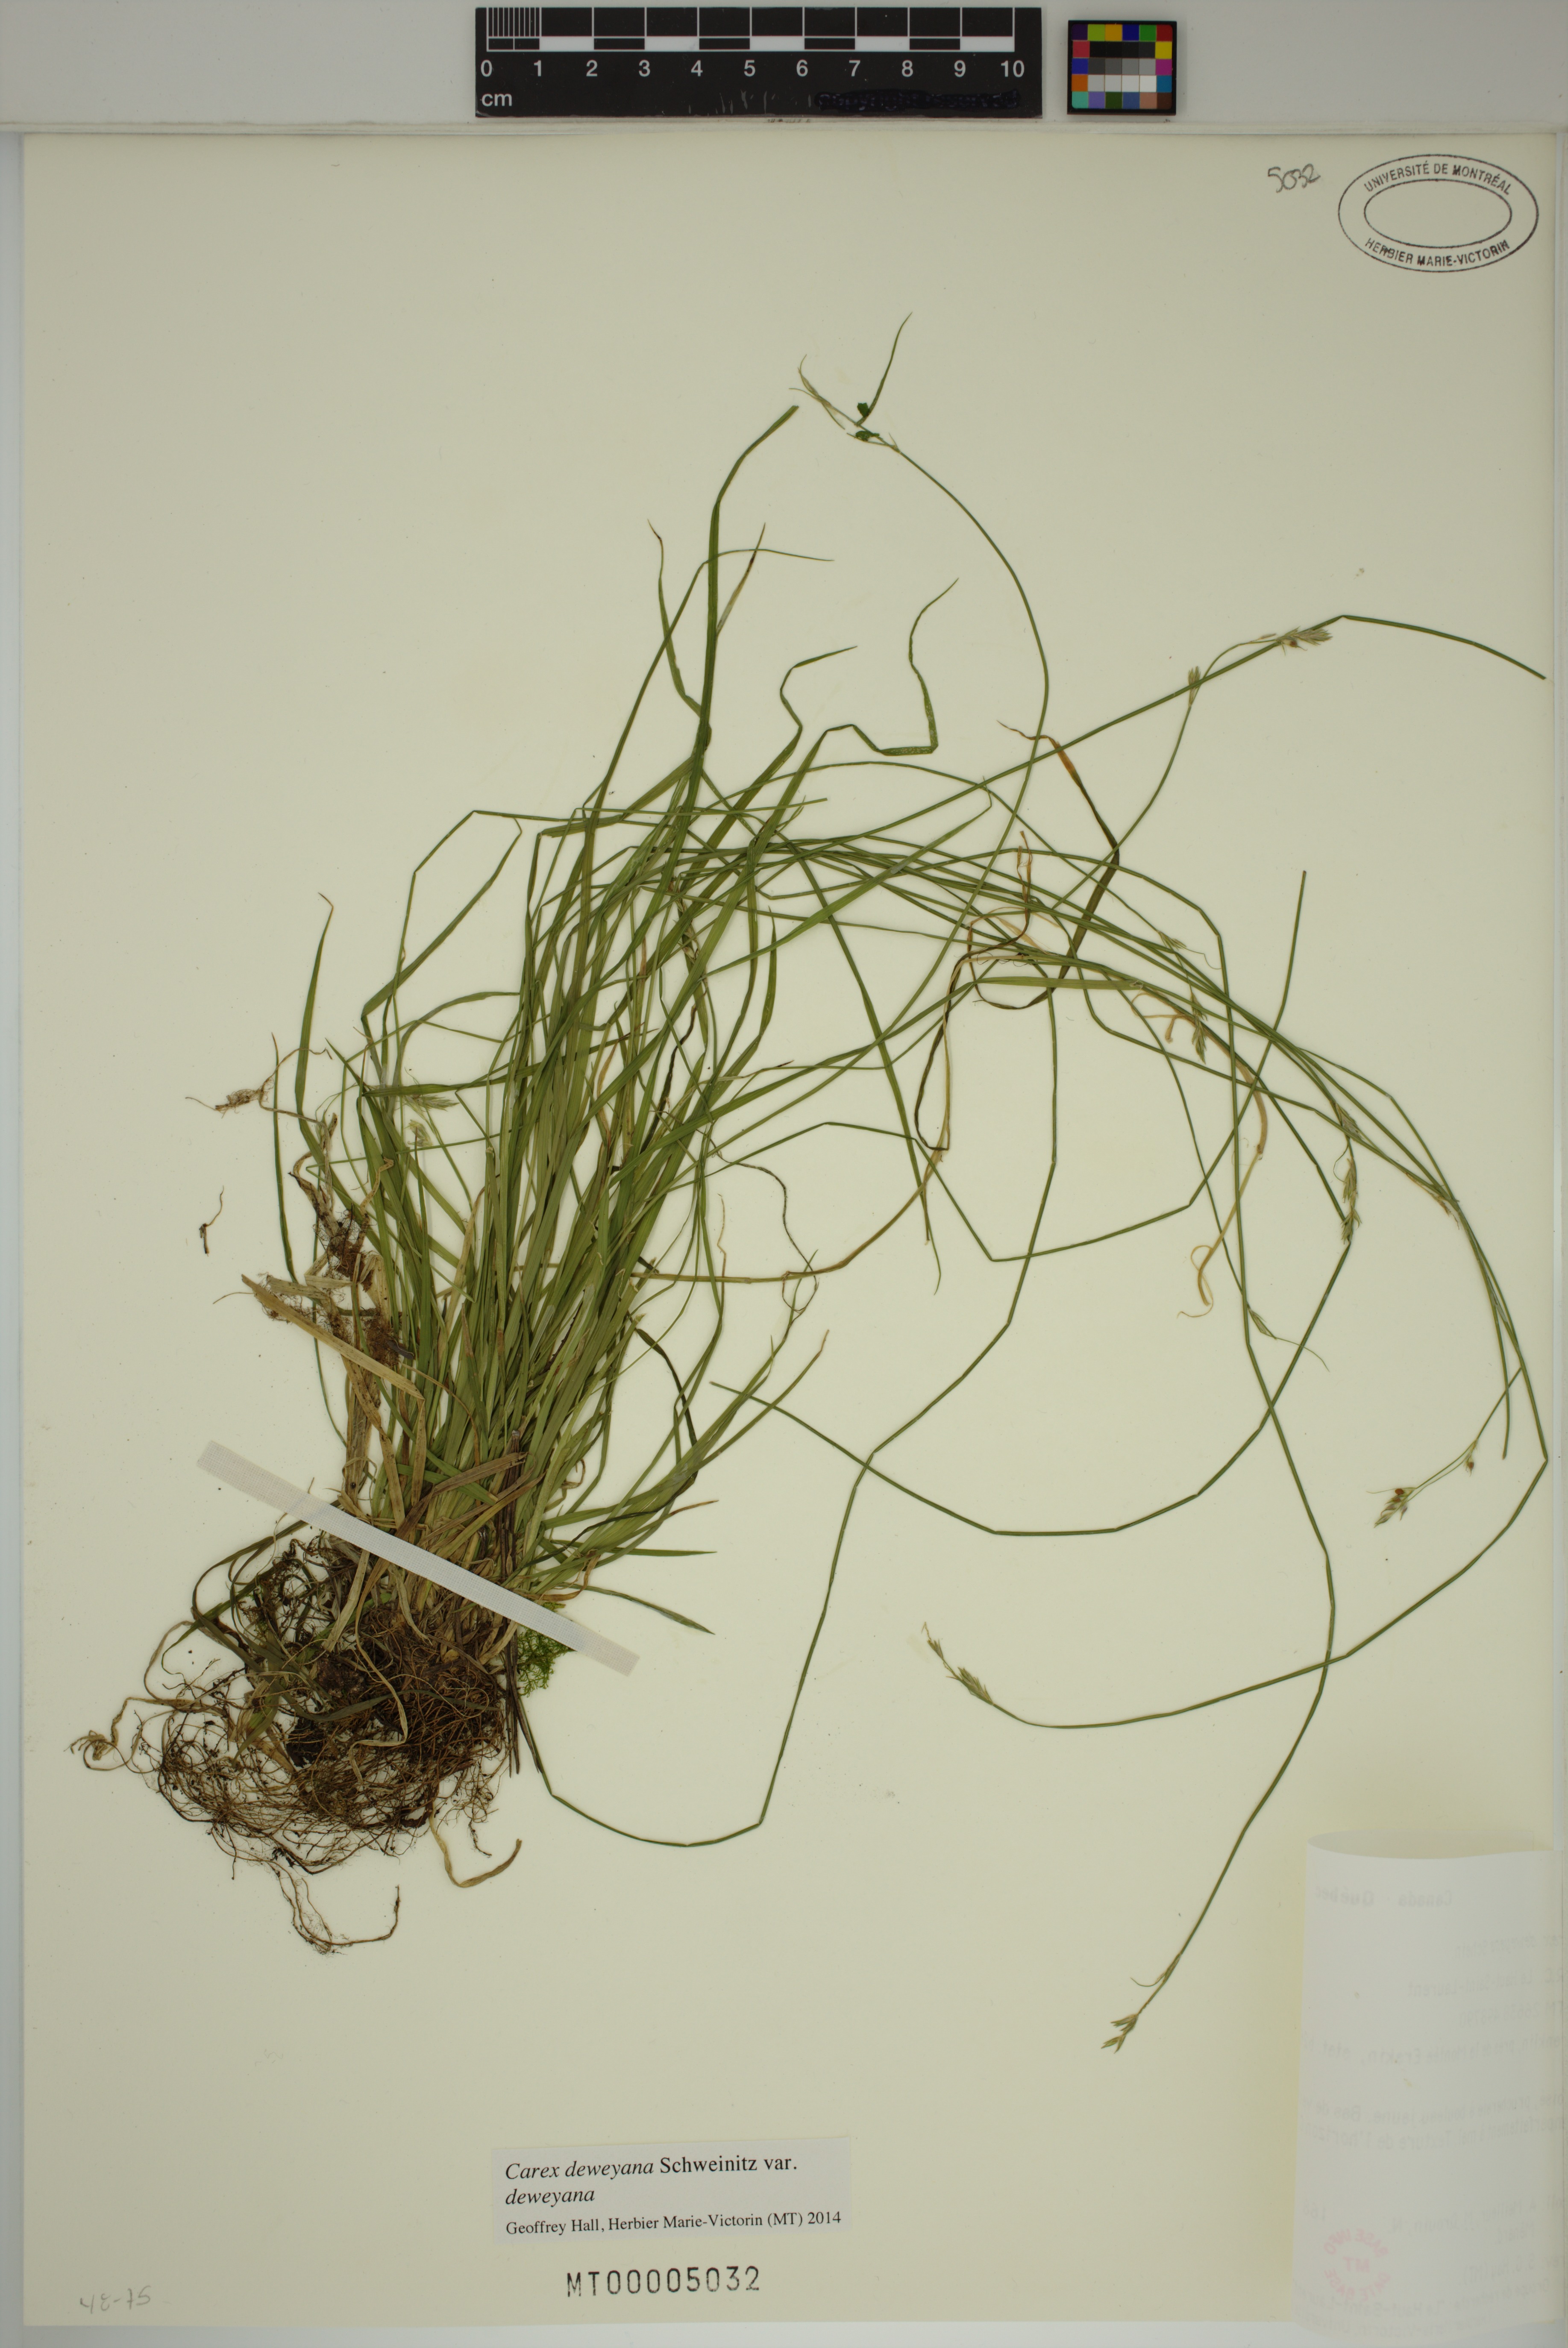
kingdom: Plantae
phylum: Tracheophyta
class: Liliopsida
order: Poales
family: Cyperaceae
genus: Carex
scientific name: Carex deweyana
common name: Dewey's sedge
